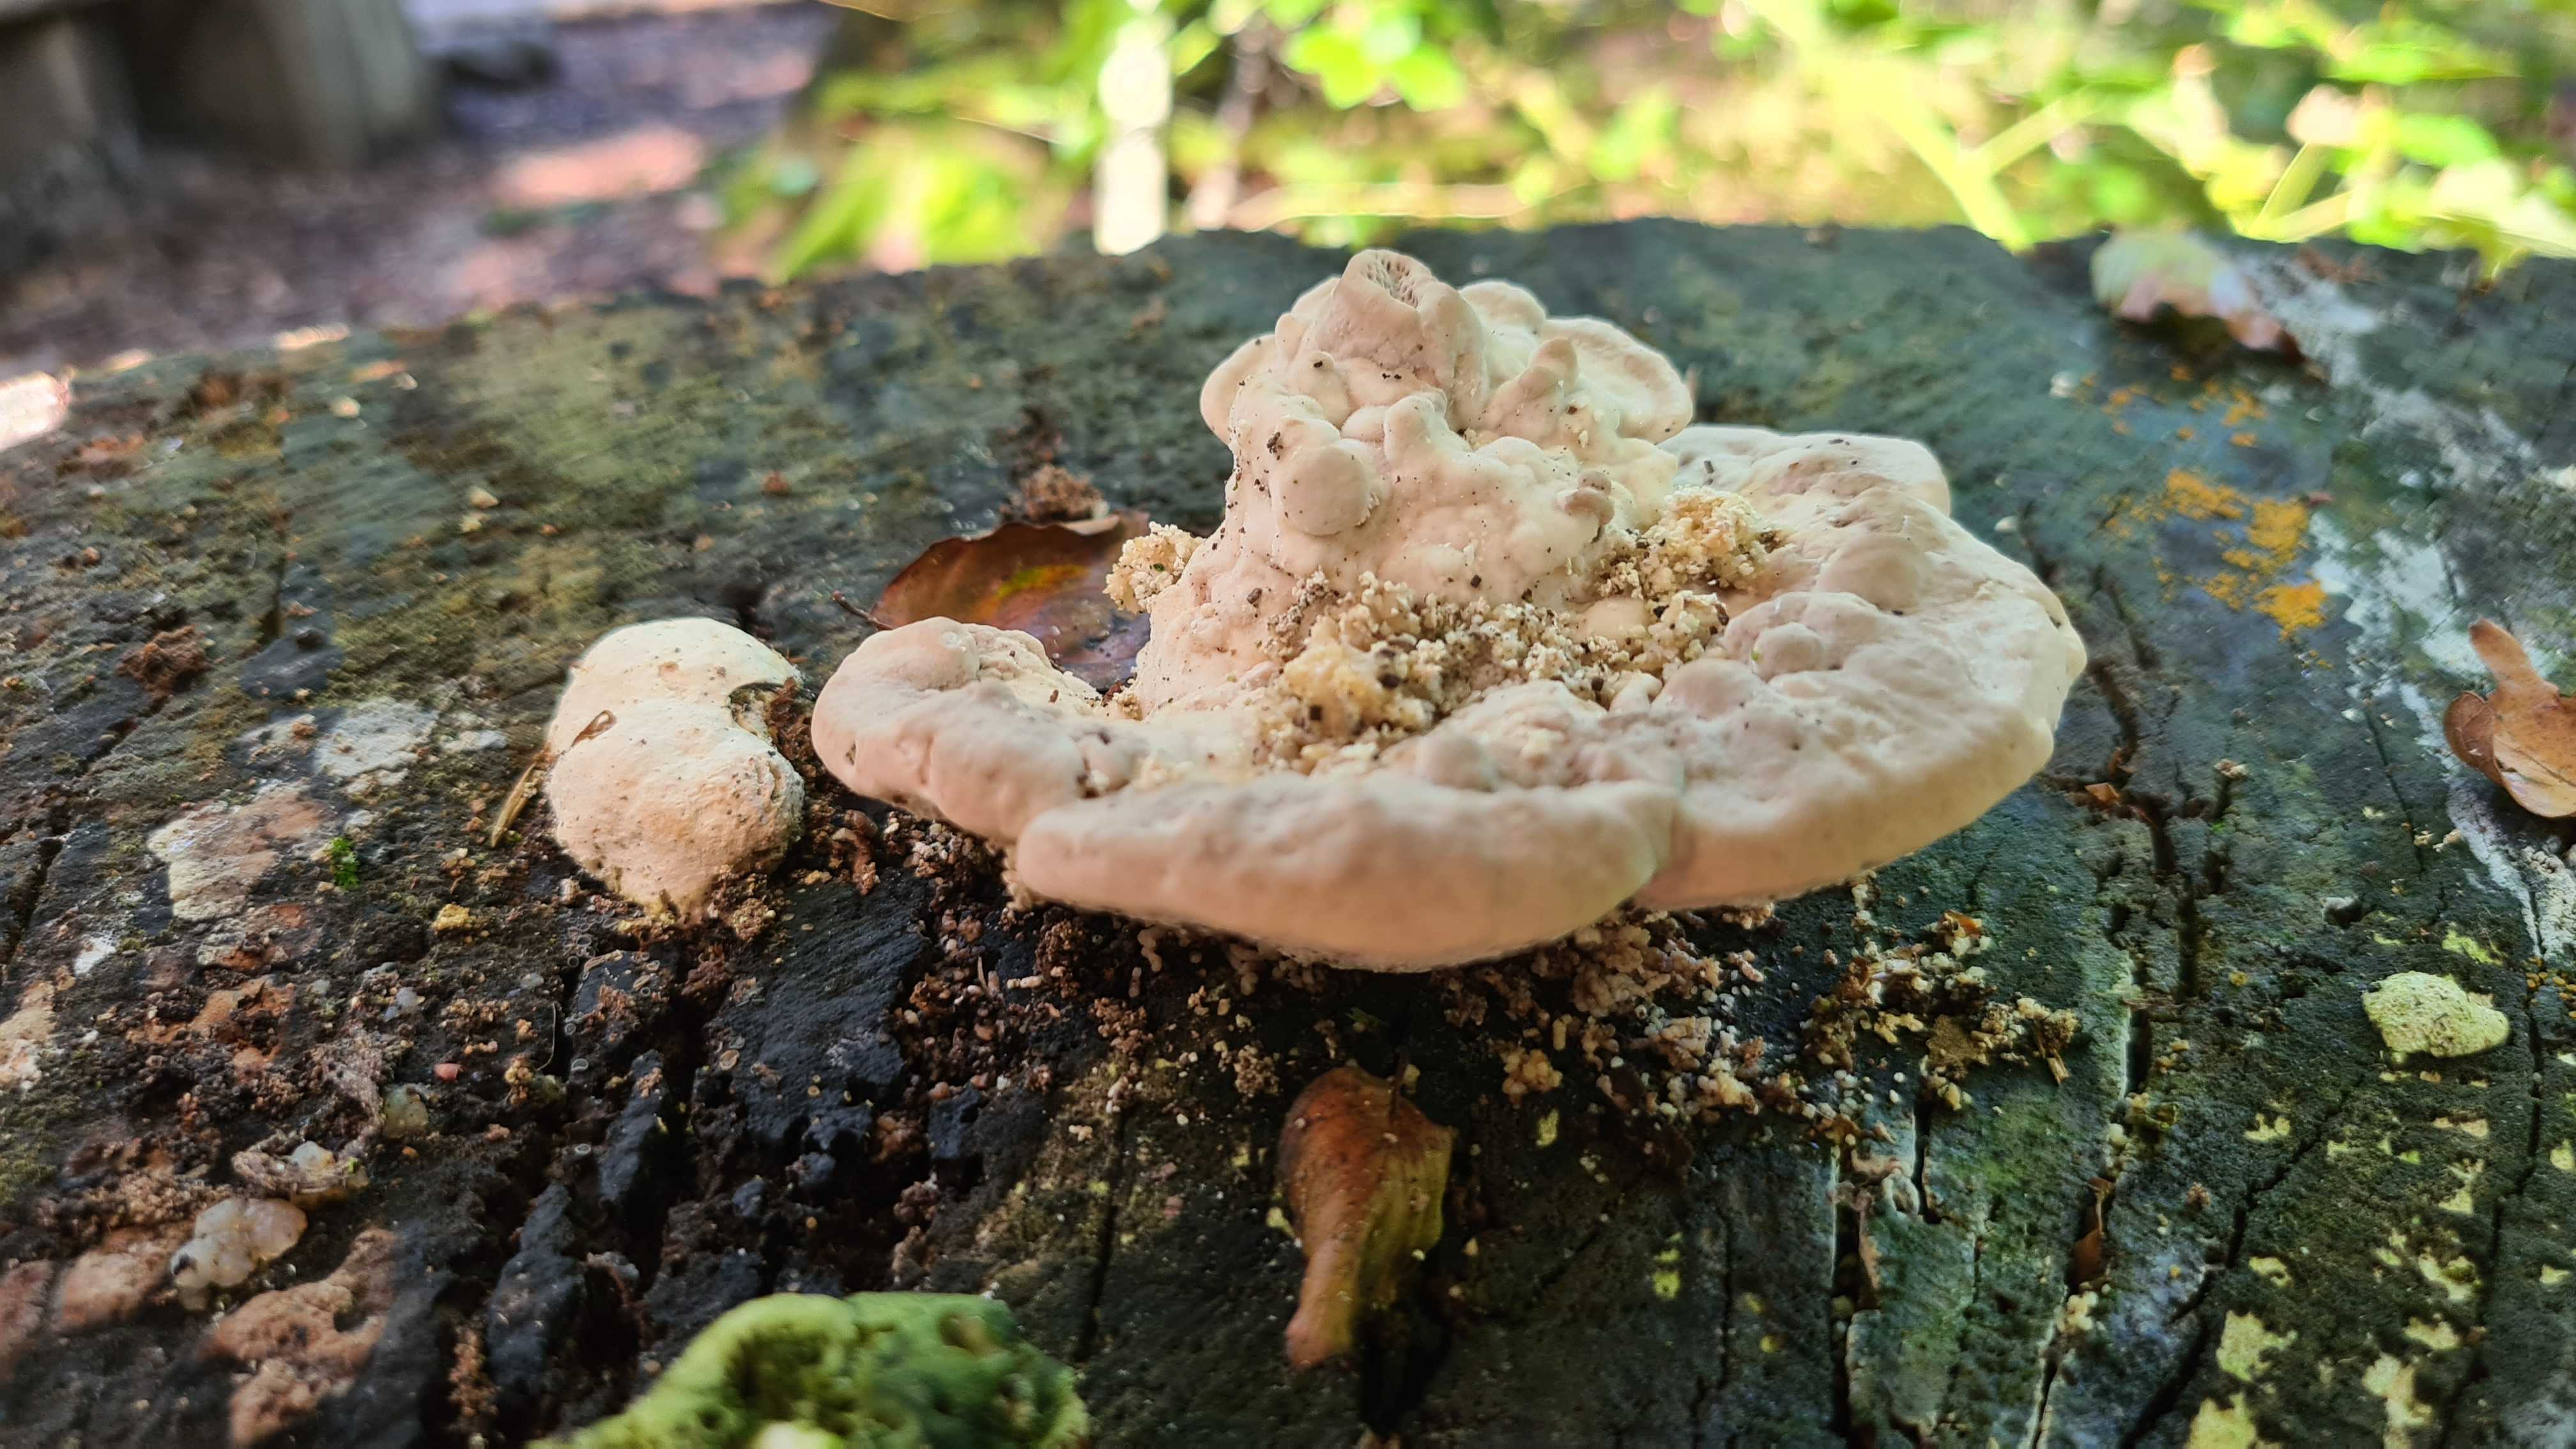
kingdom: Fungi
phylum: Basidiomycota
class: Agaricomycetes
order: Polyporales
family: Polyporaceae
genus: Trametes
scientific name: Trametes gibbosa
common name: puklet læderporesvamp
